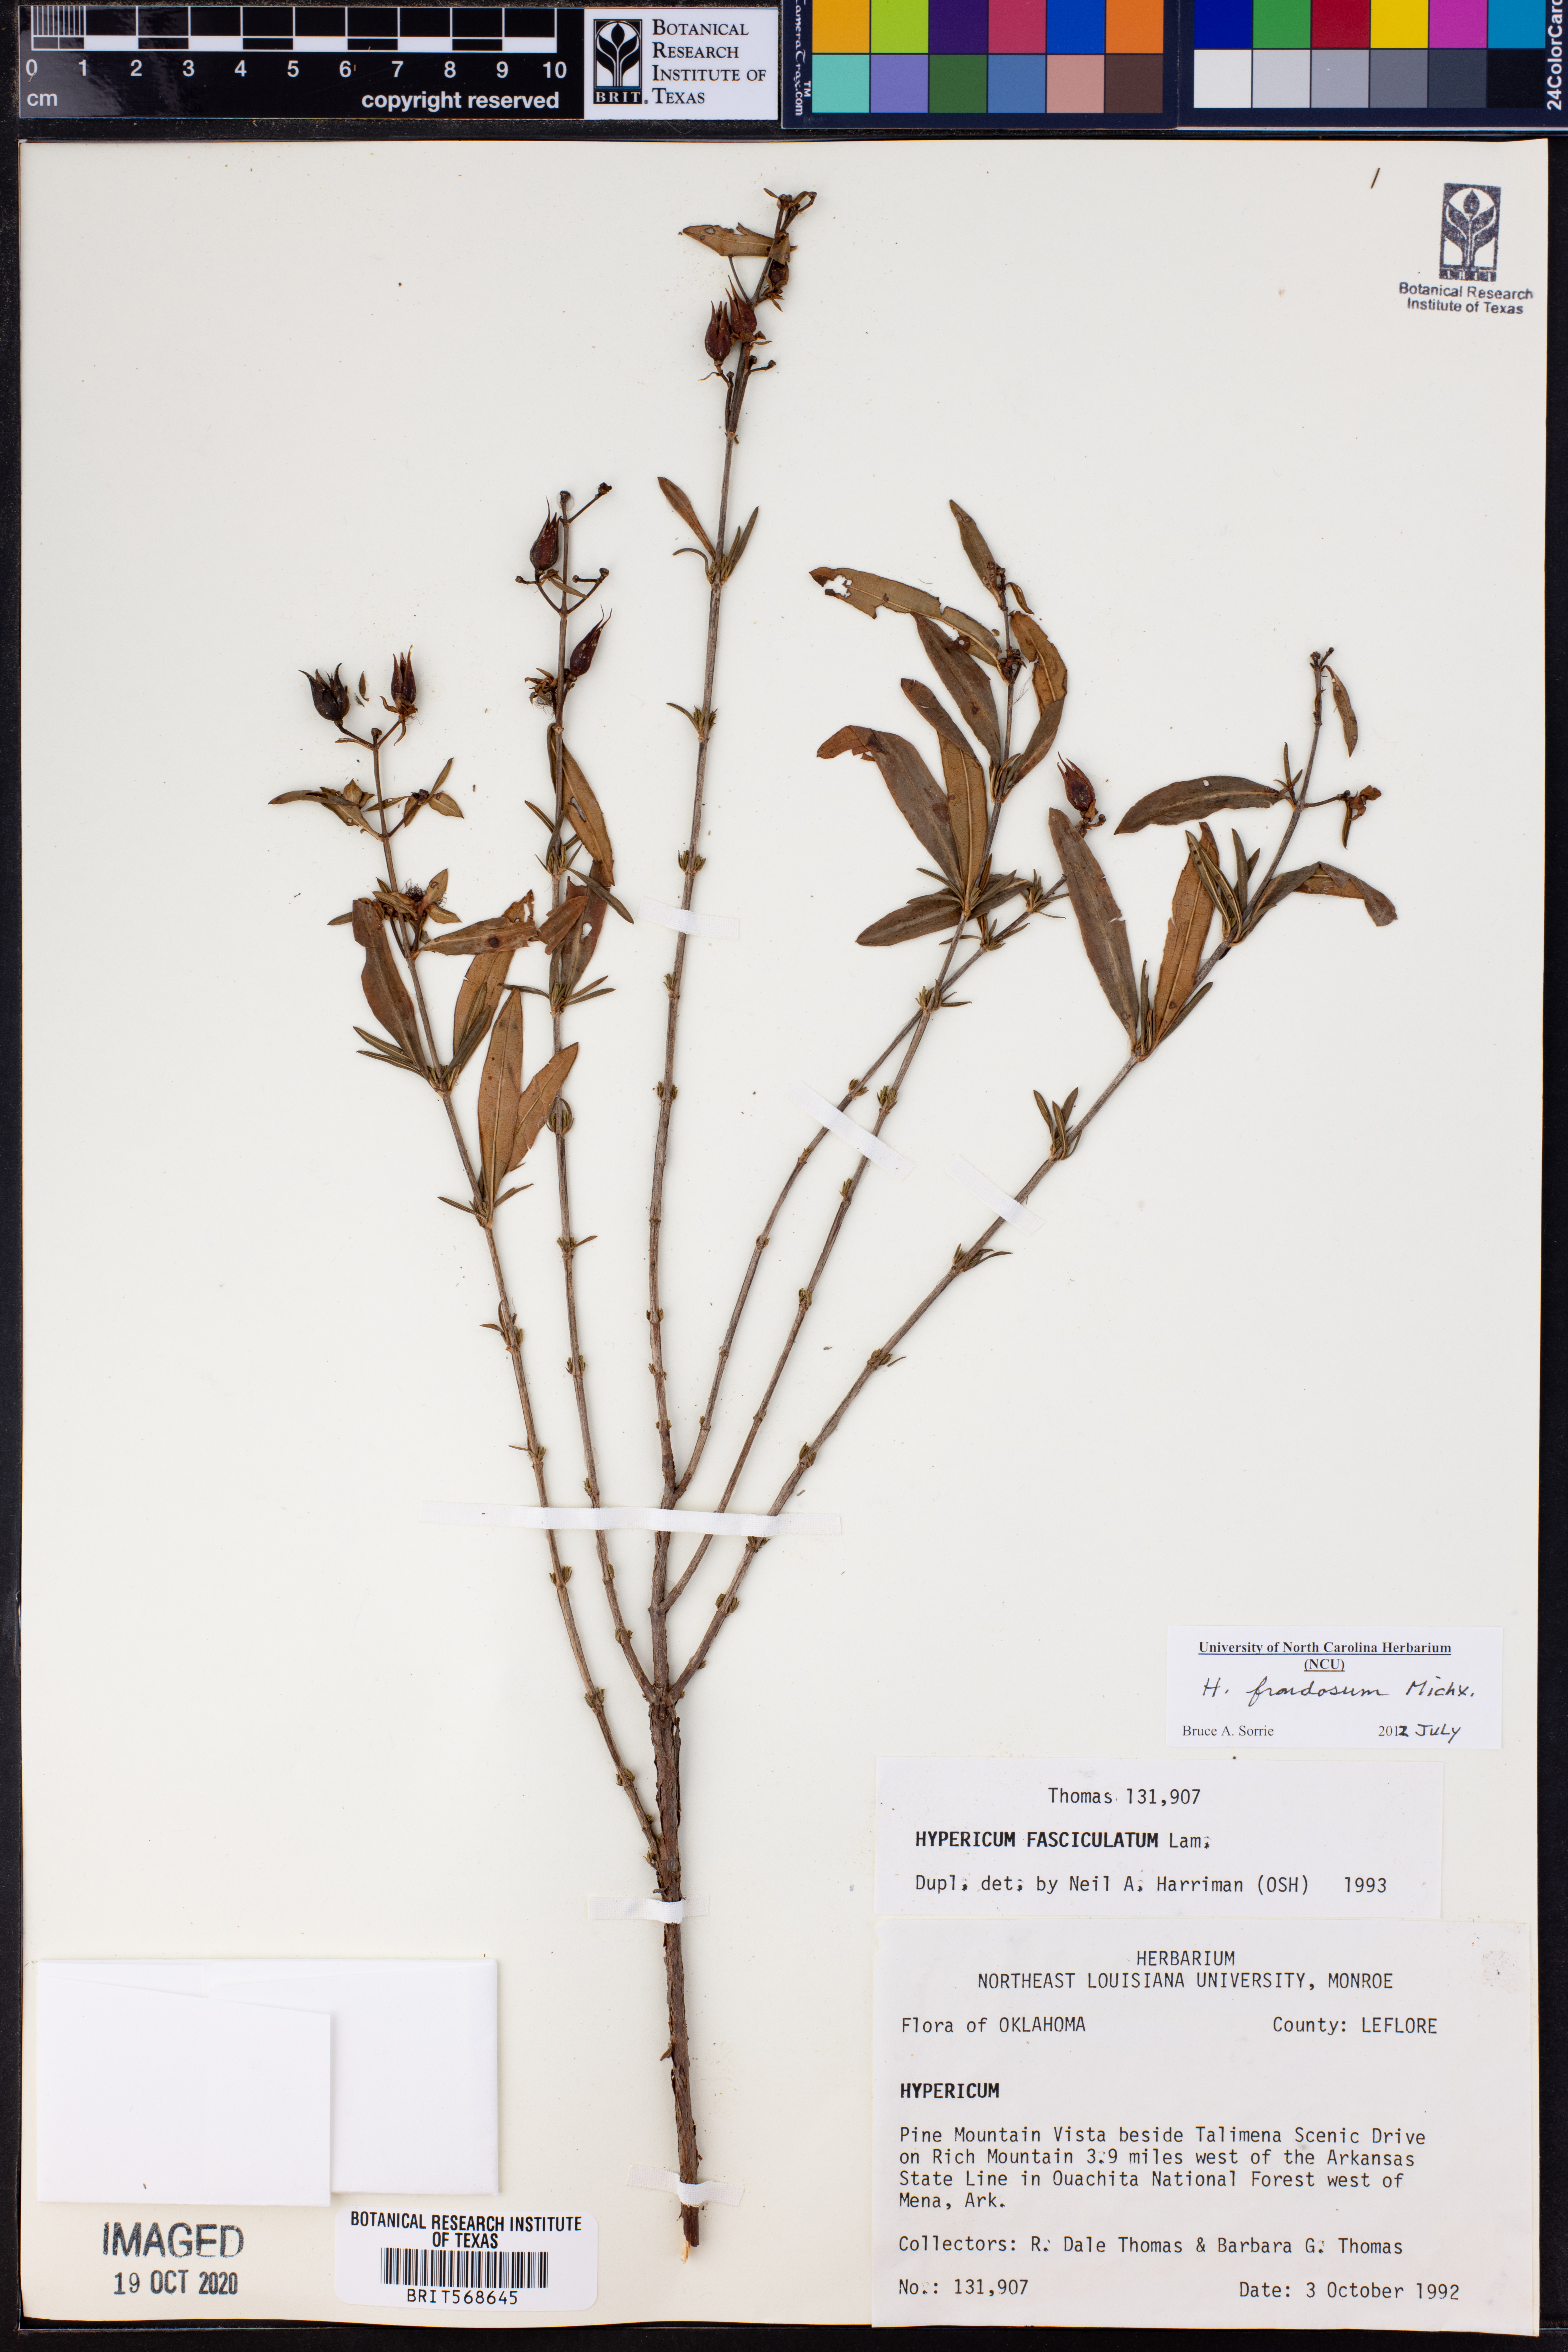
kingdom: Plantae
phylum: Tracheophyta
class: Magnoliopsida
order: Malpighiales
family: Hypericaceae
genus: Hypericum
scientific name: Hypericum frondosum
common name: Golden st. john's-wort
